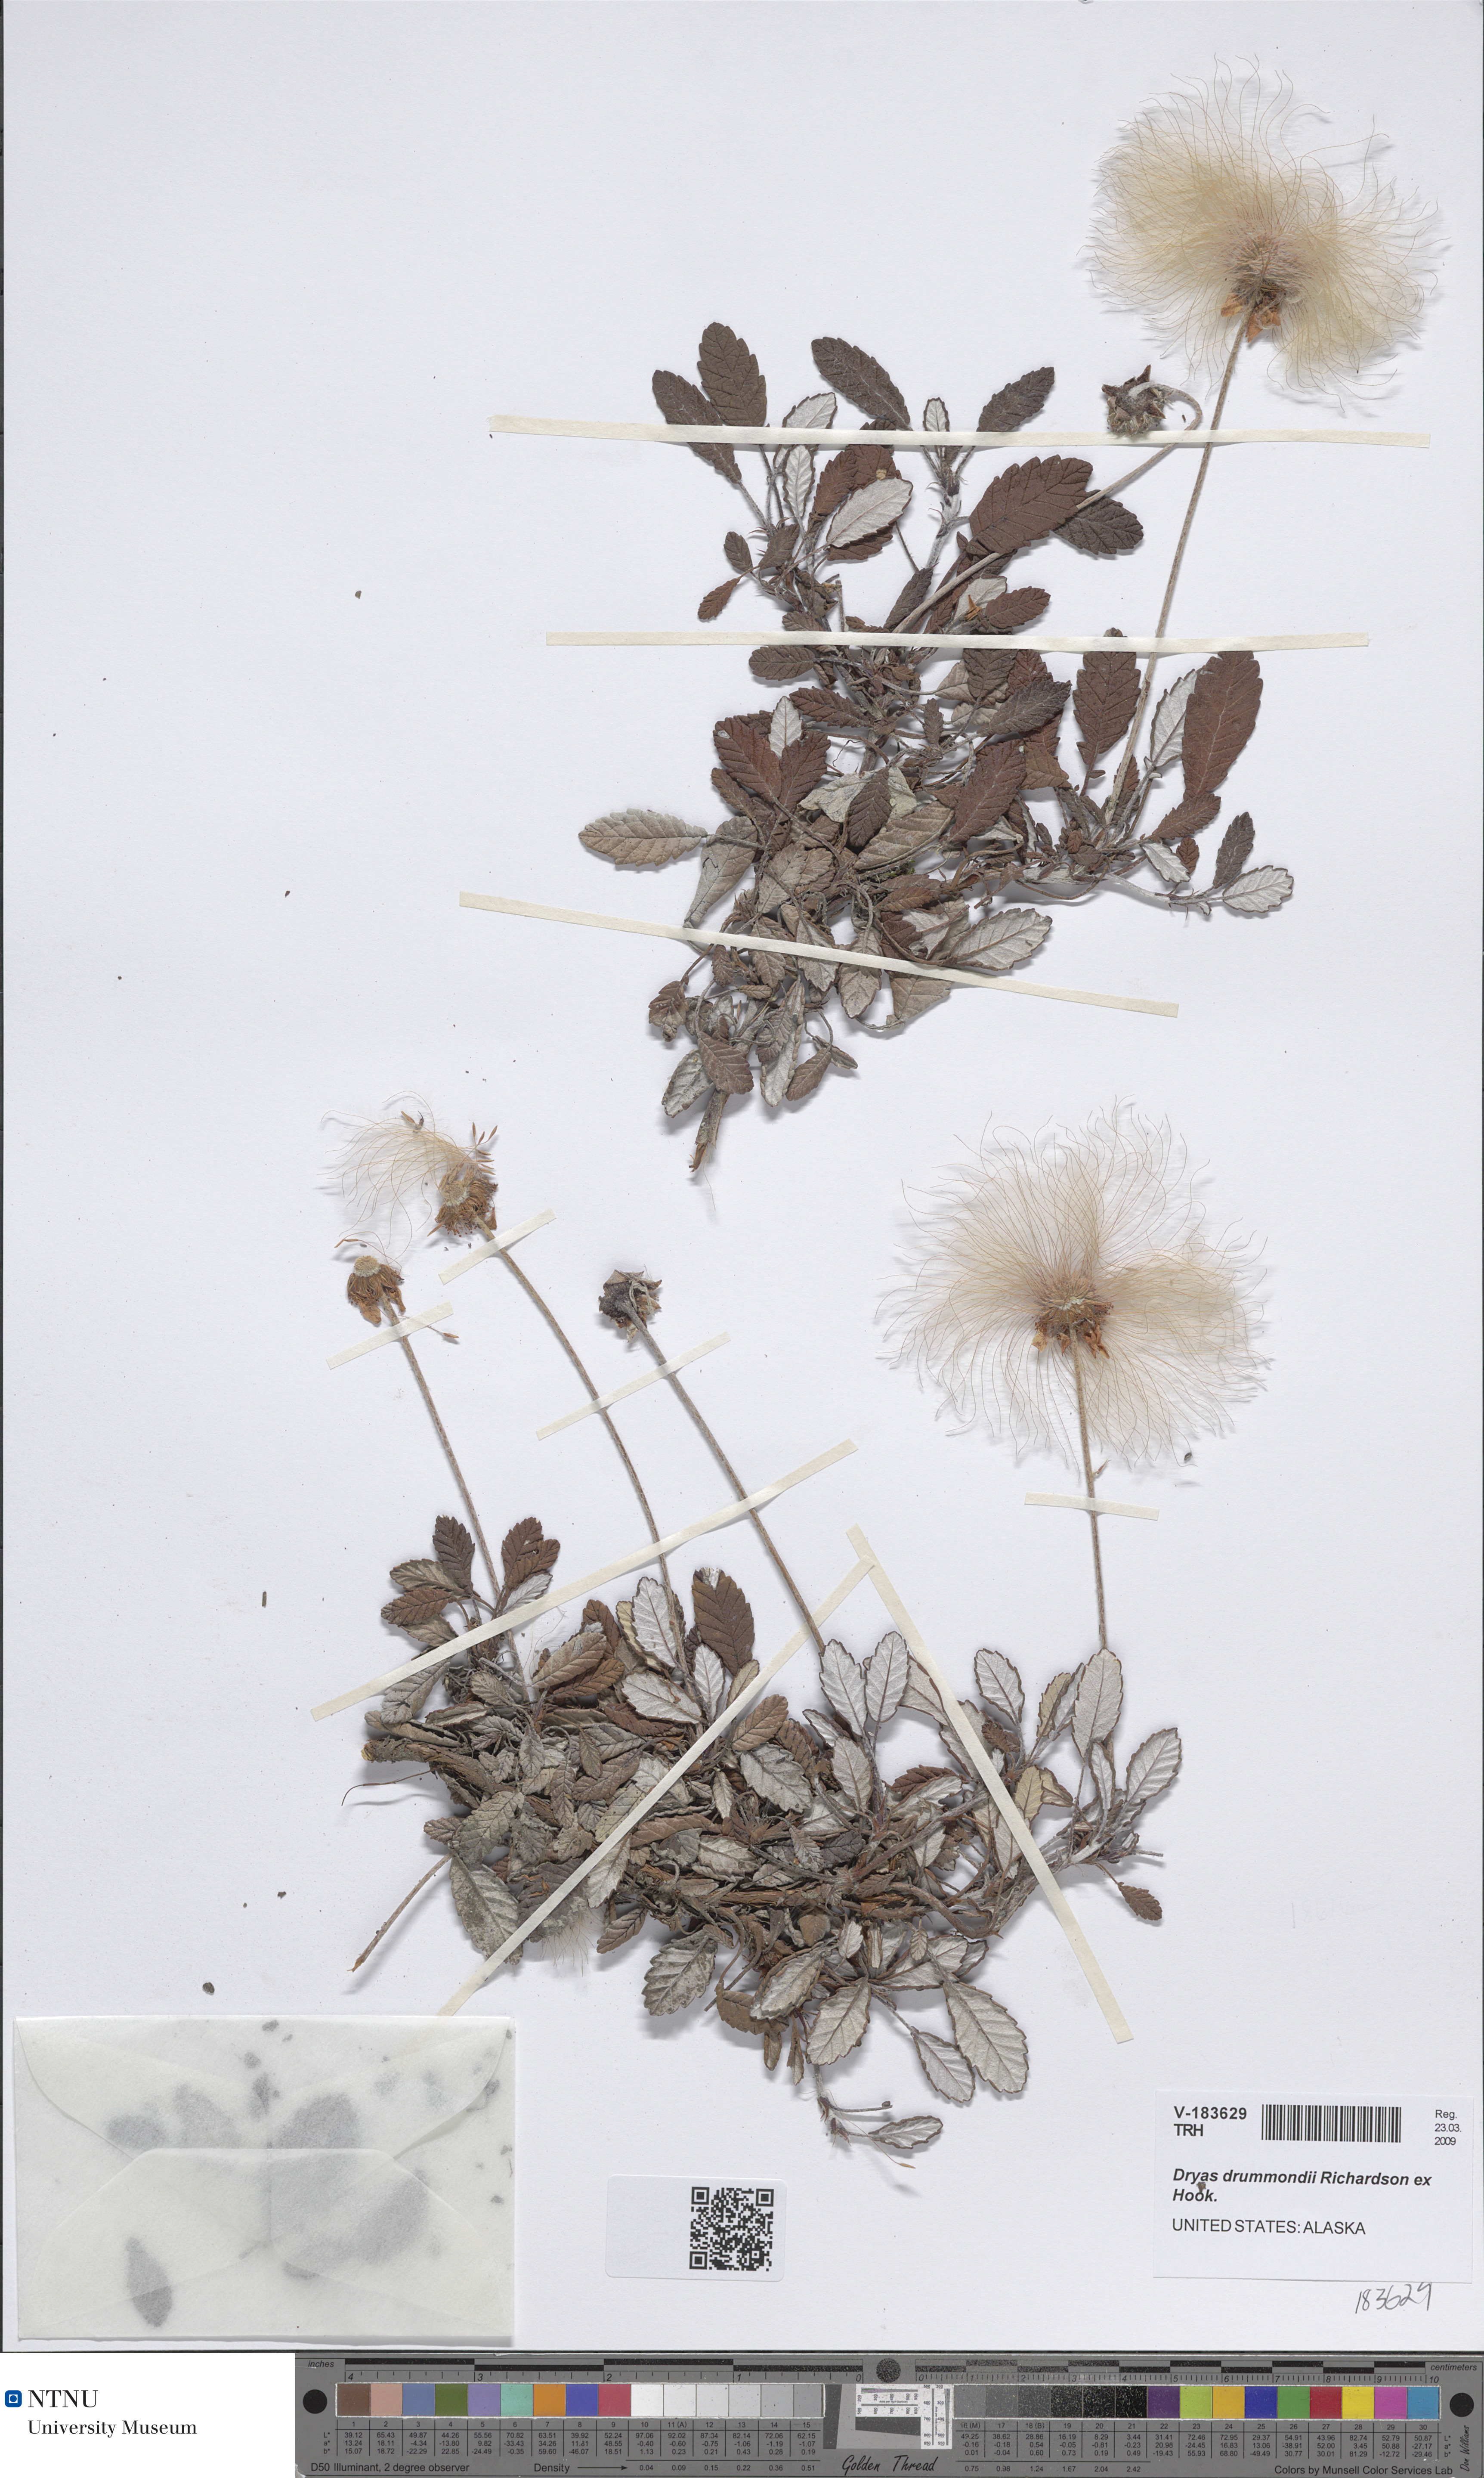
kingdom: Plantae
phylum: Tracheophyta
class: Magnoliopsida
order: Rosales
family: Rosaceae
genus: Dryas
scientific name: Dryas drummondii
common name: Drummond's dryad
